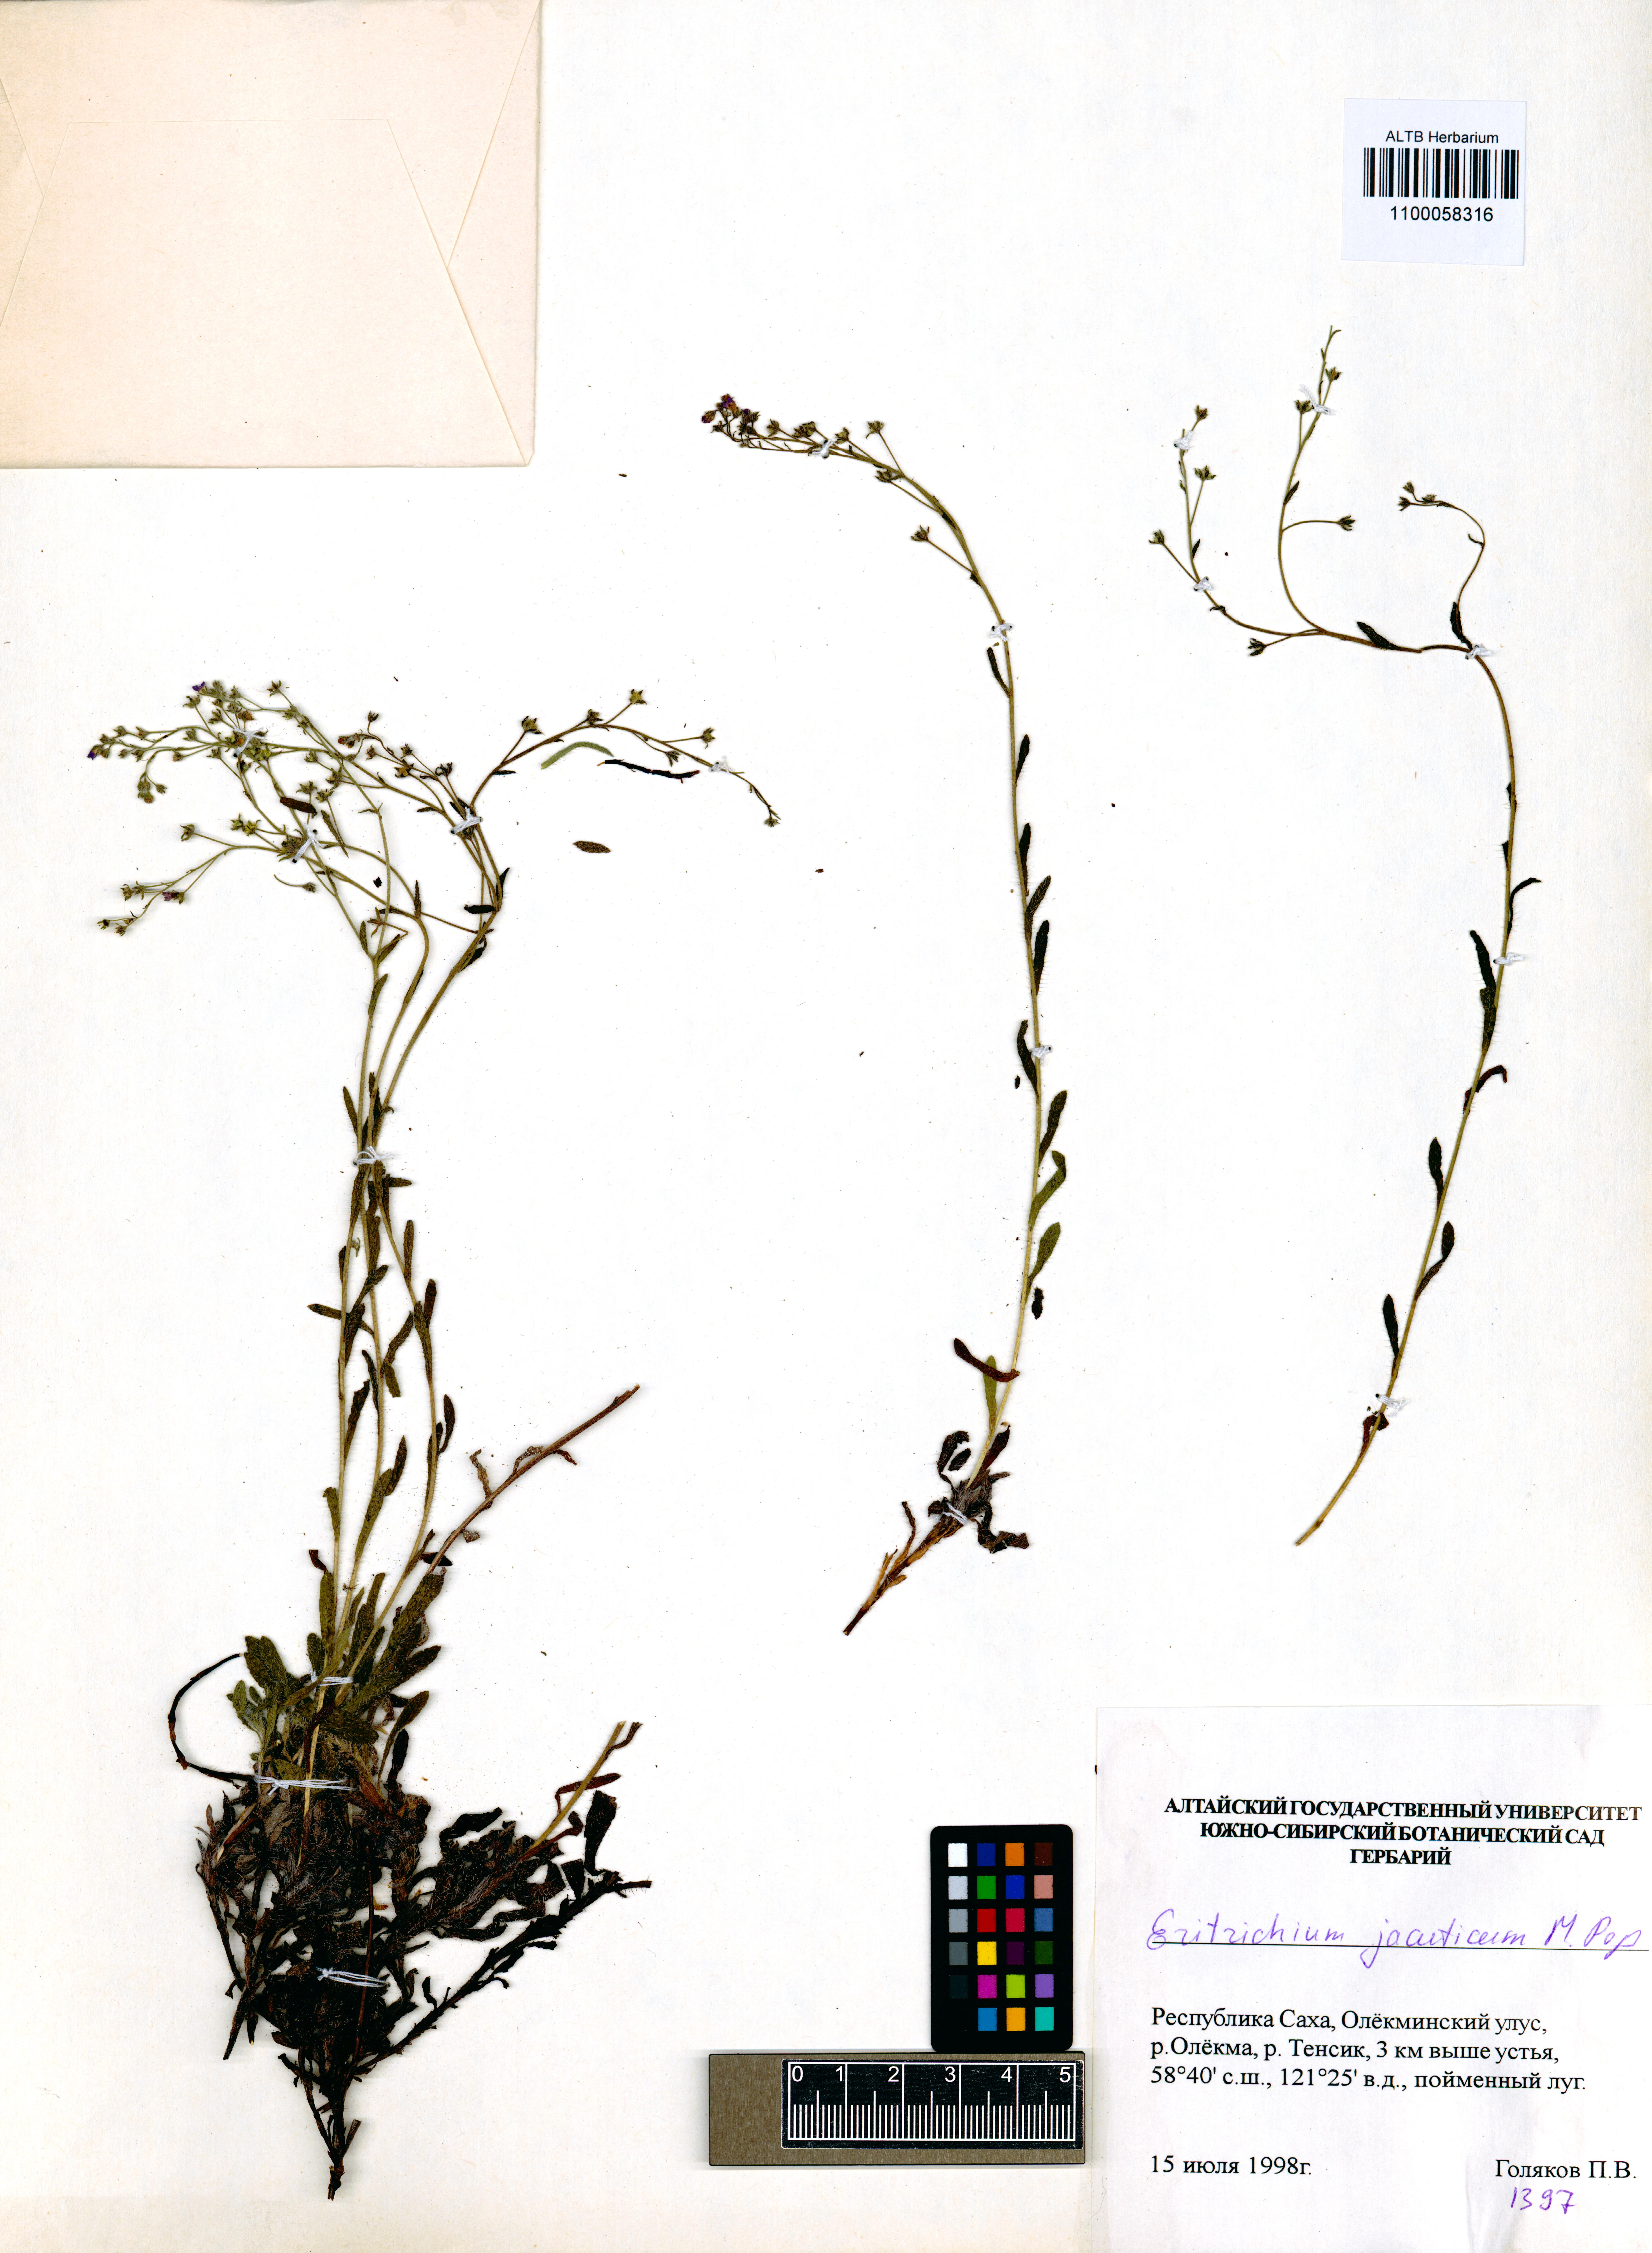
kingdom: Plantae
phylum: Tracheophyta
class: Magnoliopsida
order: Boraginales
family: Boraginaceae
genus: Eritrichium
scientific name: Eritrichium jacuticum
